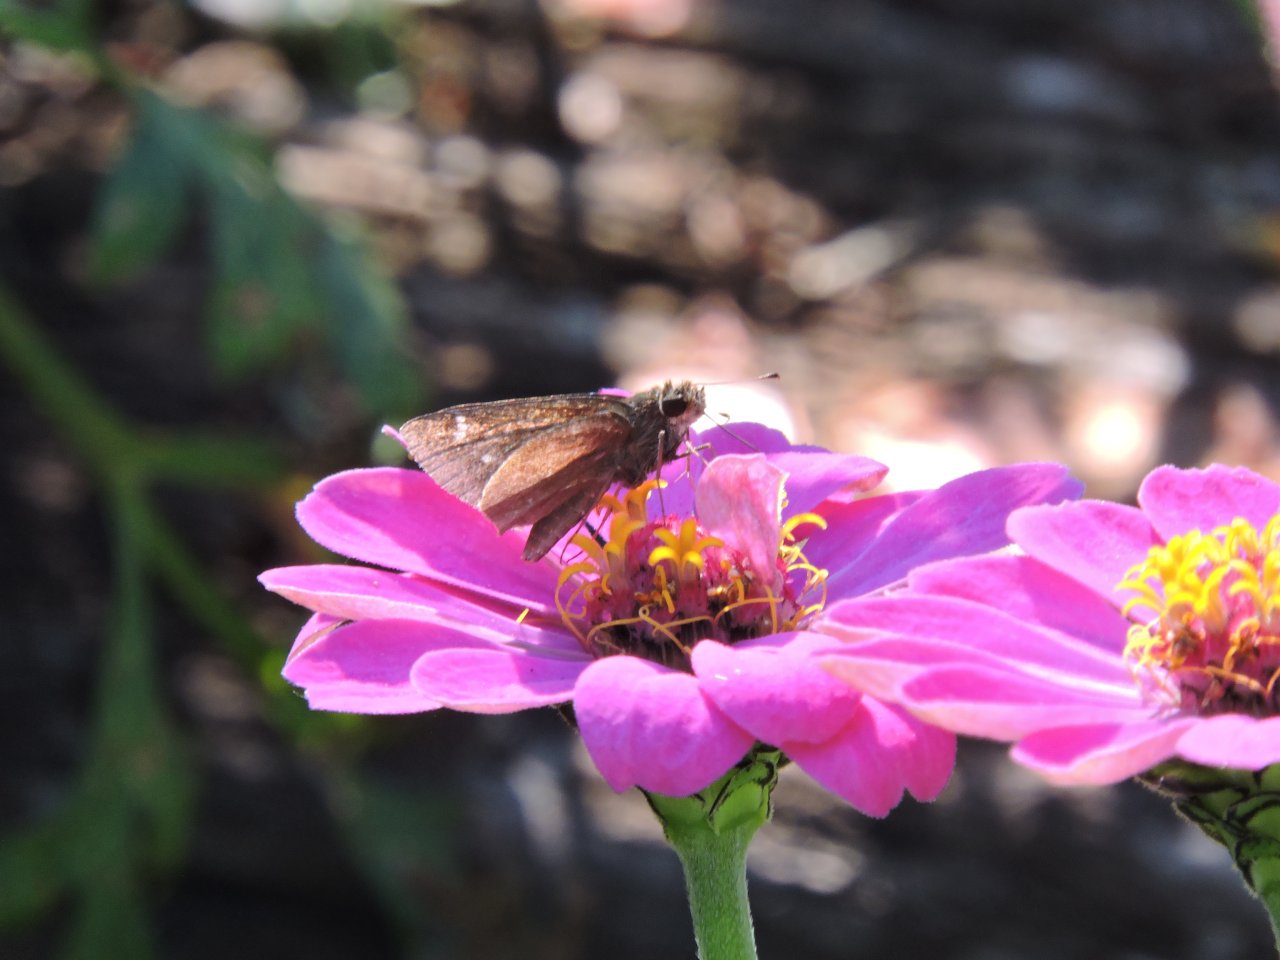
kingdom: Animalia
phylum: Arthropoda
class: Insecta
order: Lepidoptera
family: Hesperiidae
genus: Lerema
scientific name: Lerema accius
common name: Clouded Skipper
